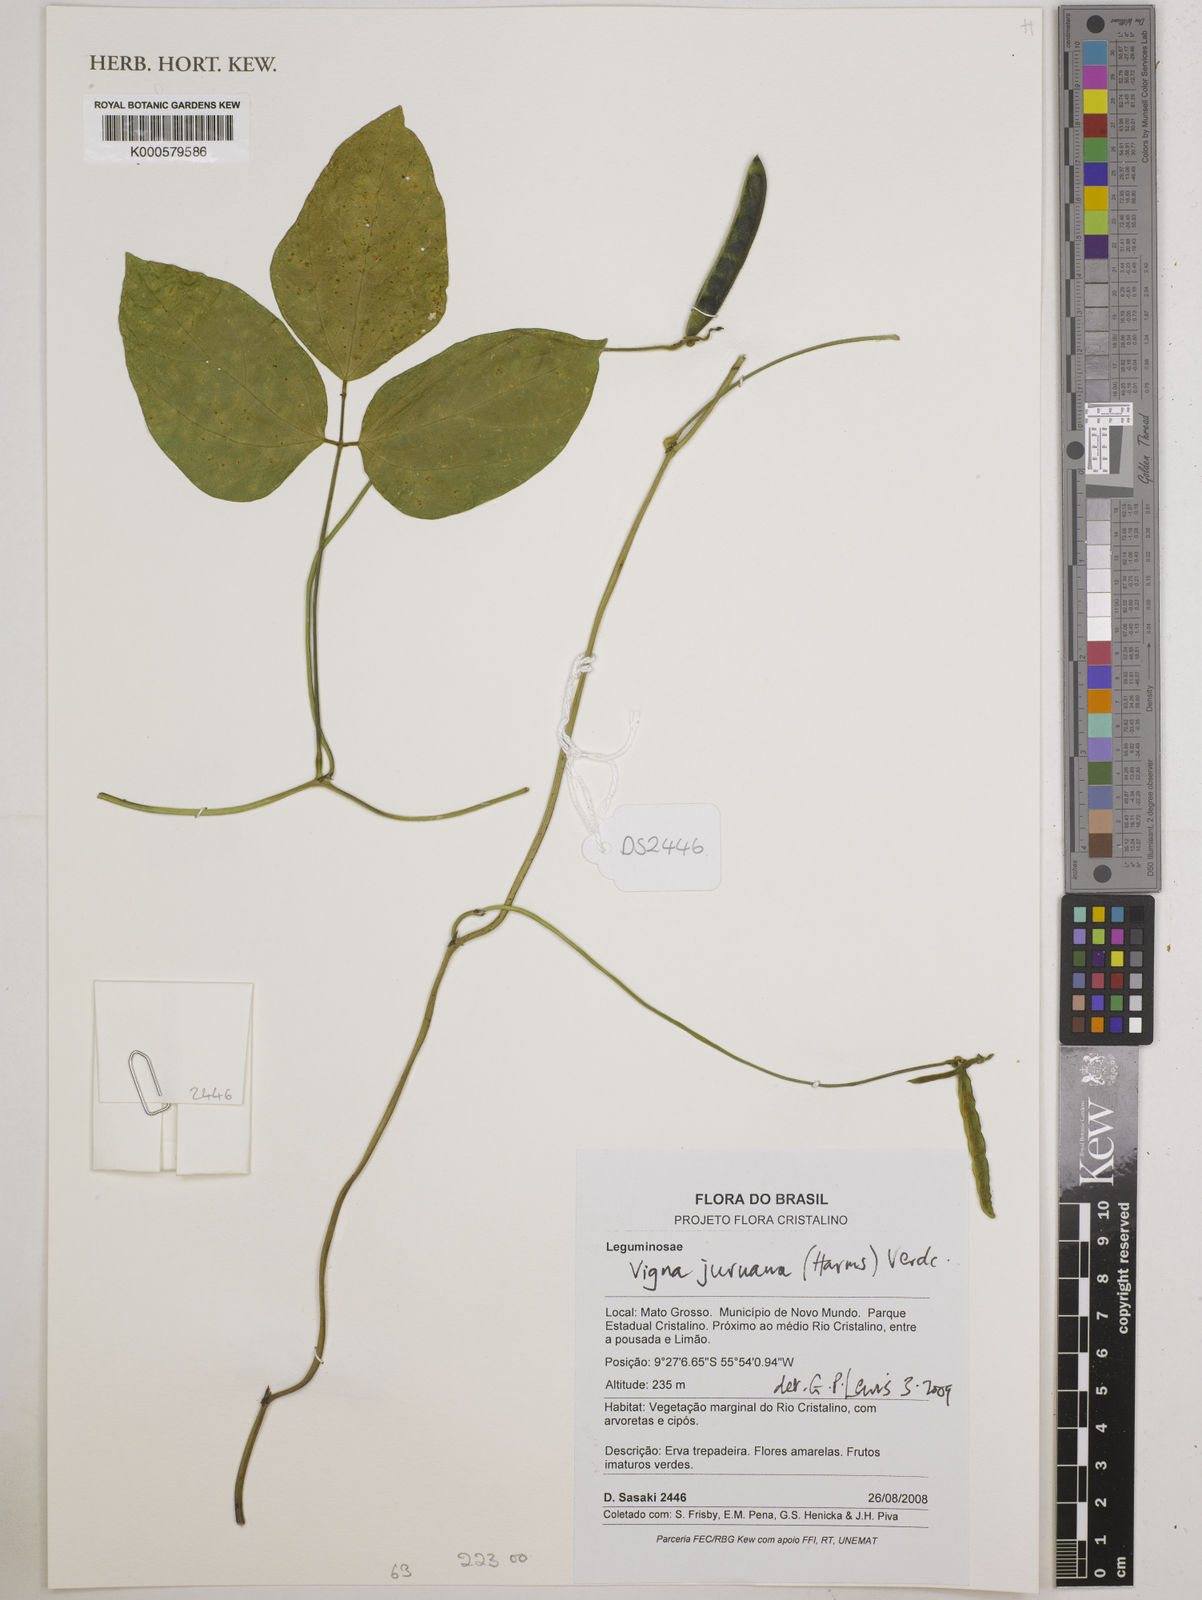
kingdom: Plantae
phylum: Tracheophyta
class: Magnoliopsida
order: Fabales
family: Fabaceae
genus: Vigna
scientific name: Vigna juruana
